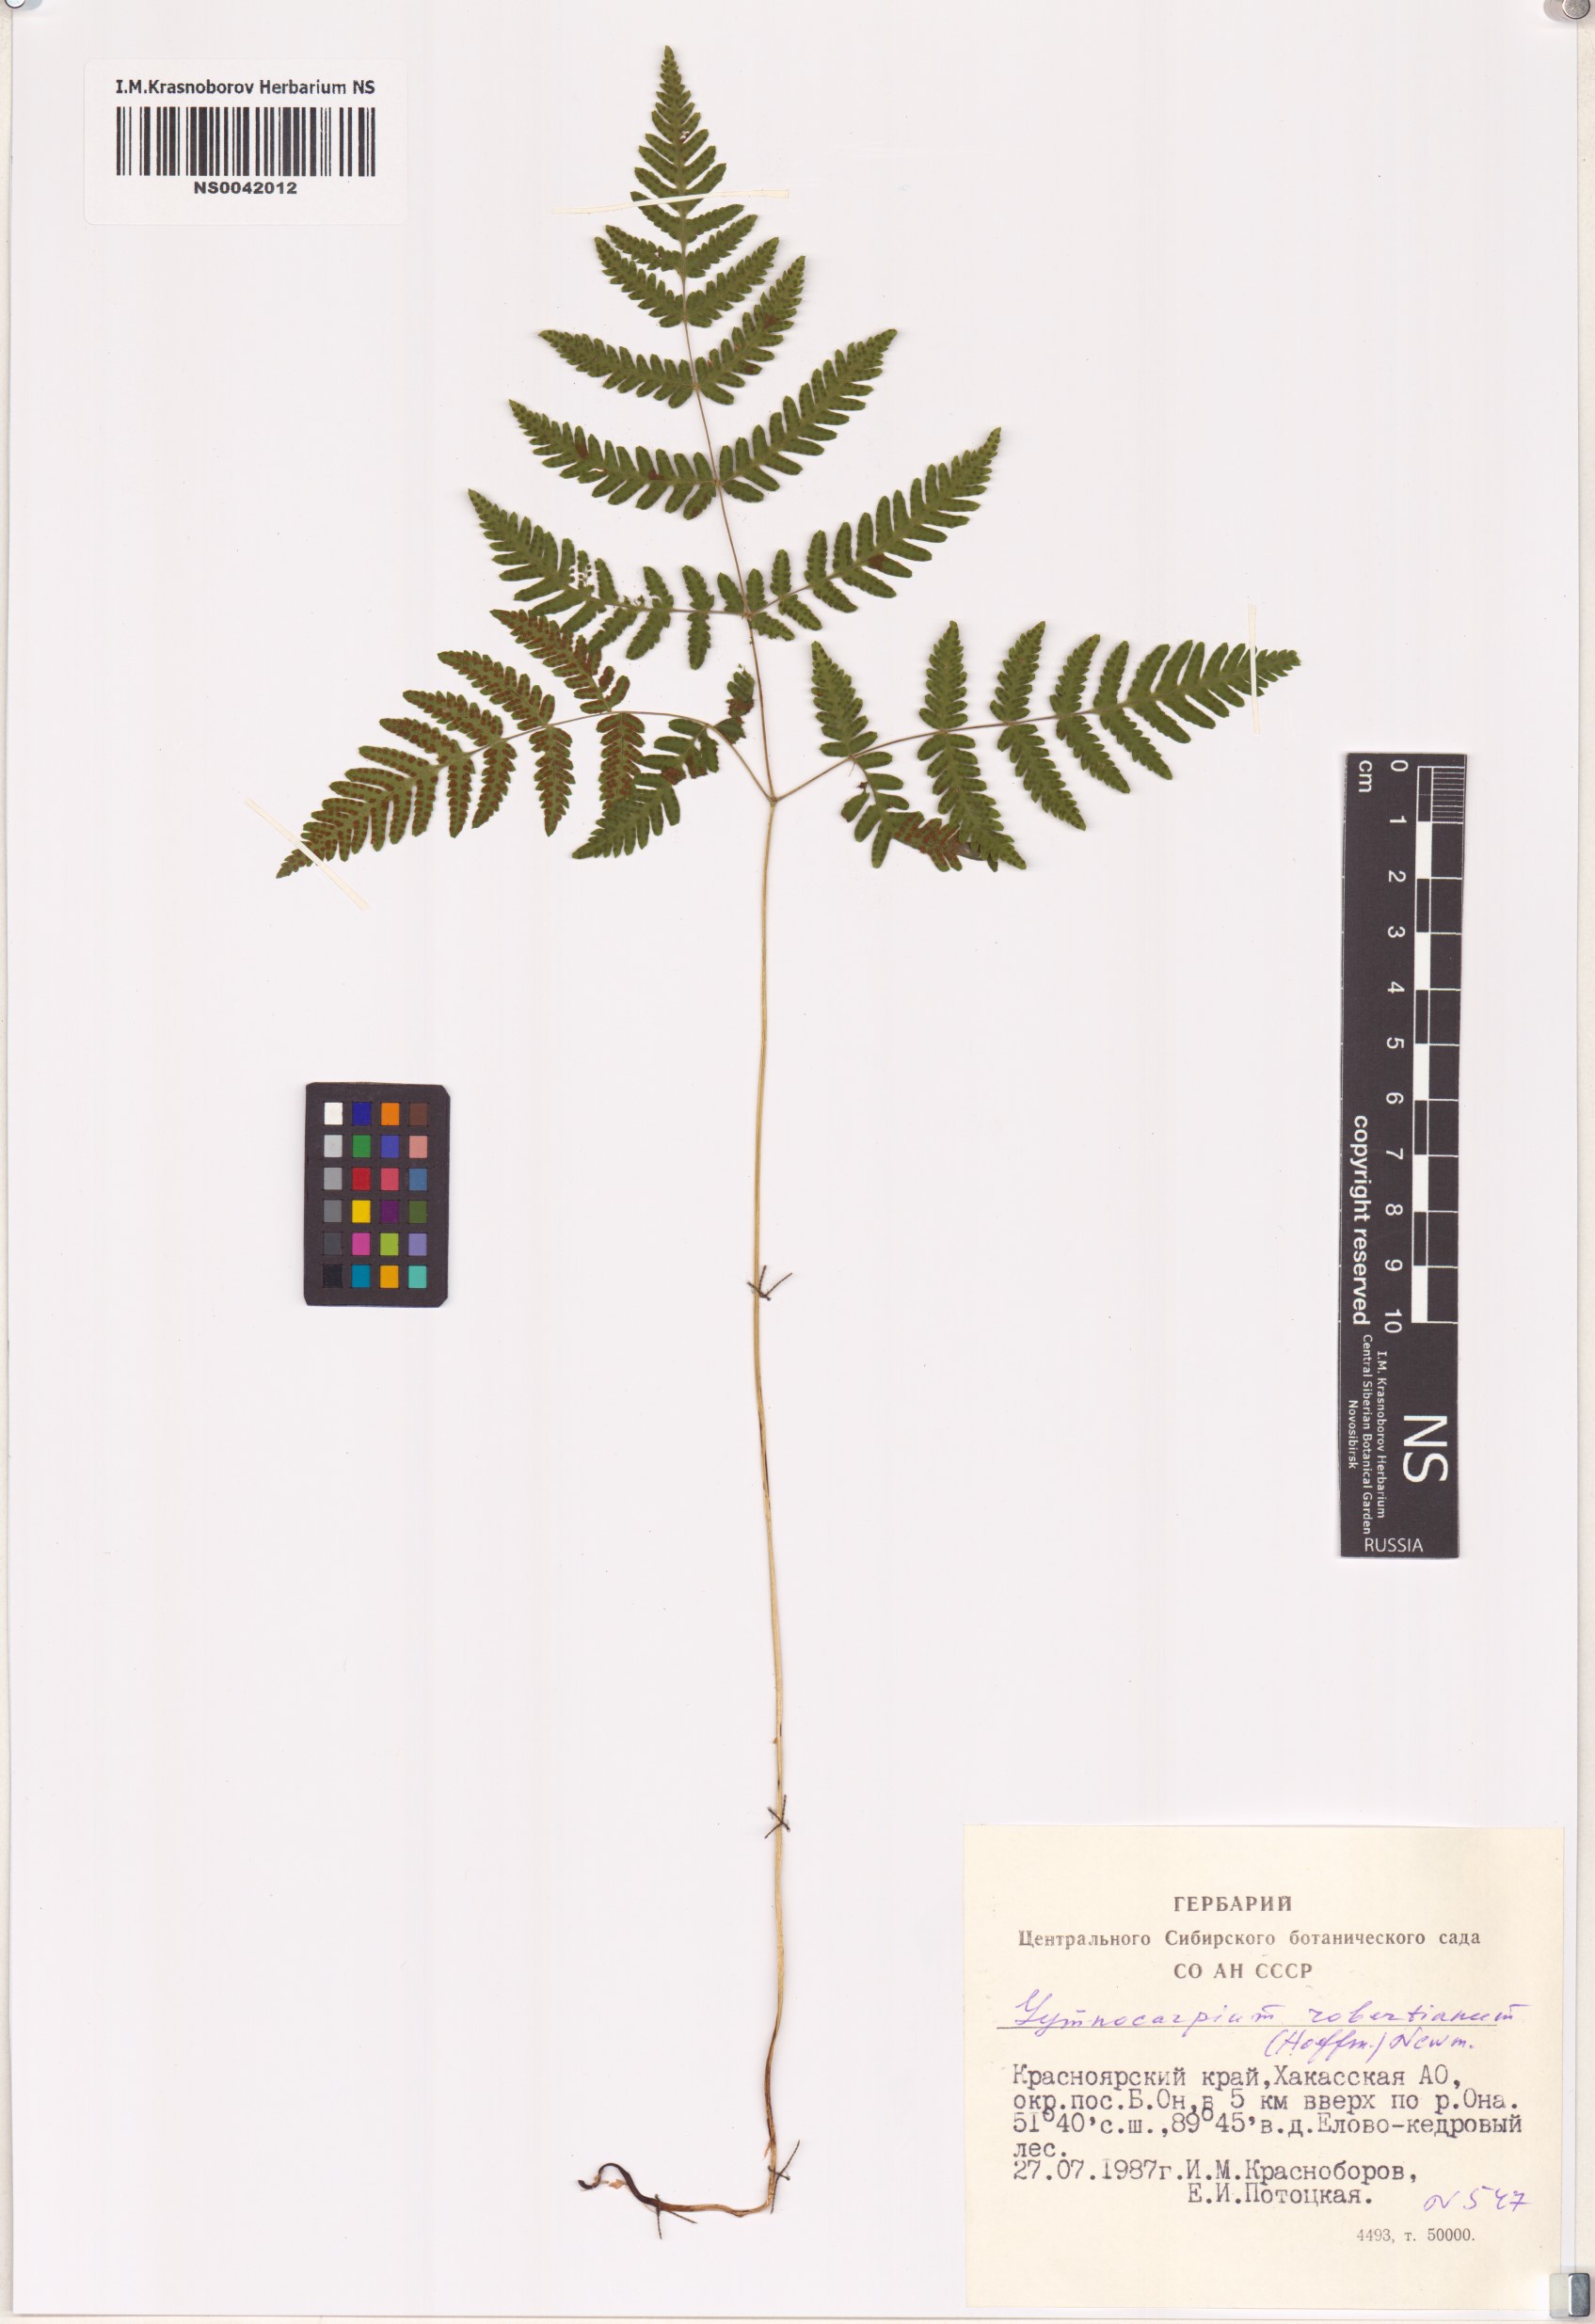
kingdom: Plantae
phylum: Tracheophyta
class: Polypodiopsida
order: Polypodiales
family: Cystopteridaceae
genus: Gymnocarpium
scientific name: Gymnocarpium robertianum
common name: Limestone fern
